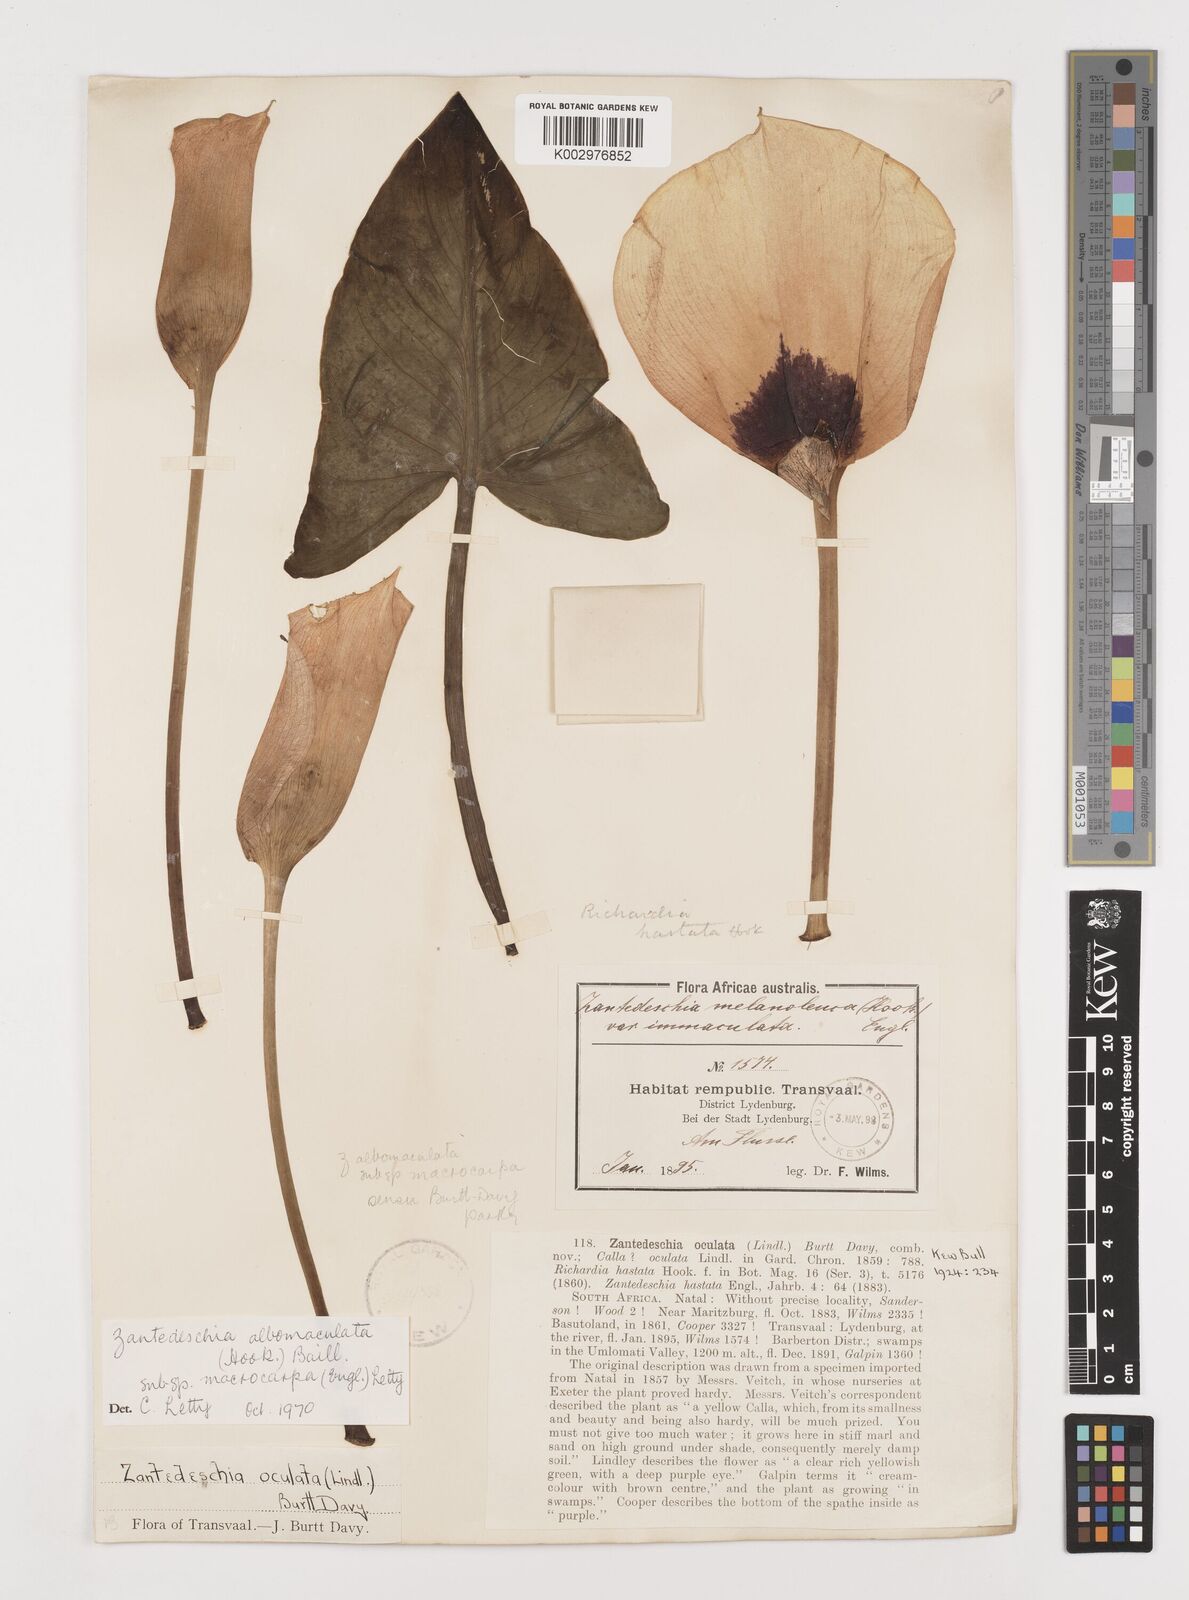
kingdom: Plantae
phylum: Tracheophyta
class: Liliopsida
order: Alismatales
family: Araceae
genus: Zantedeschia
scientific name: Zantedeschia albomaculata
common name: Spotted calla lily
